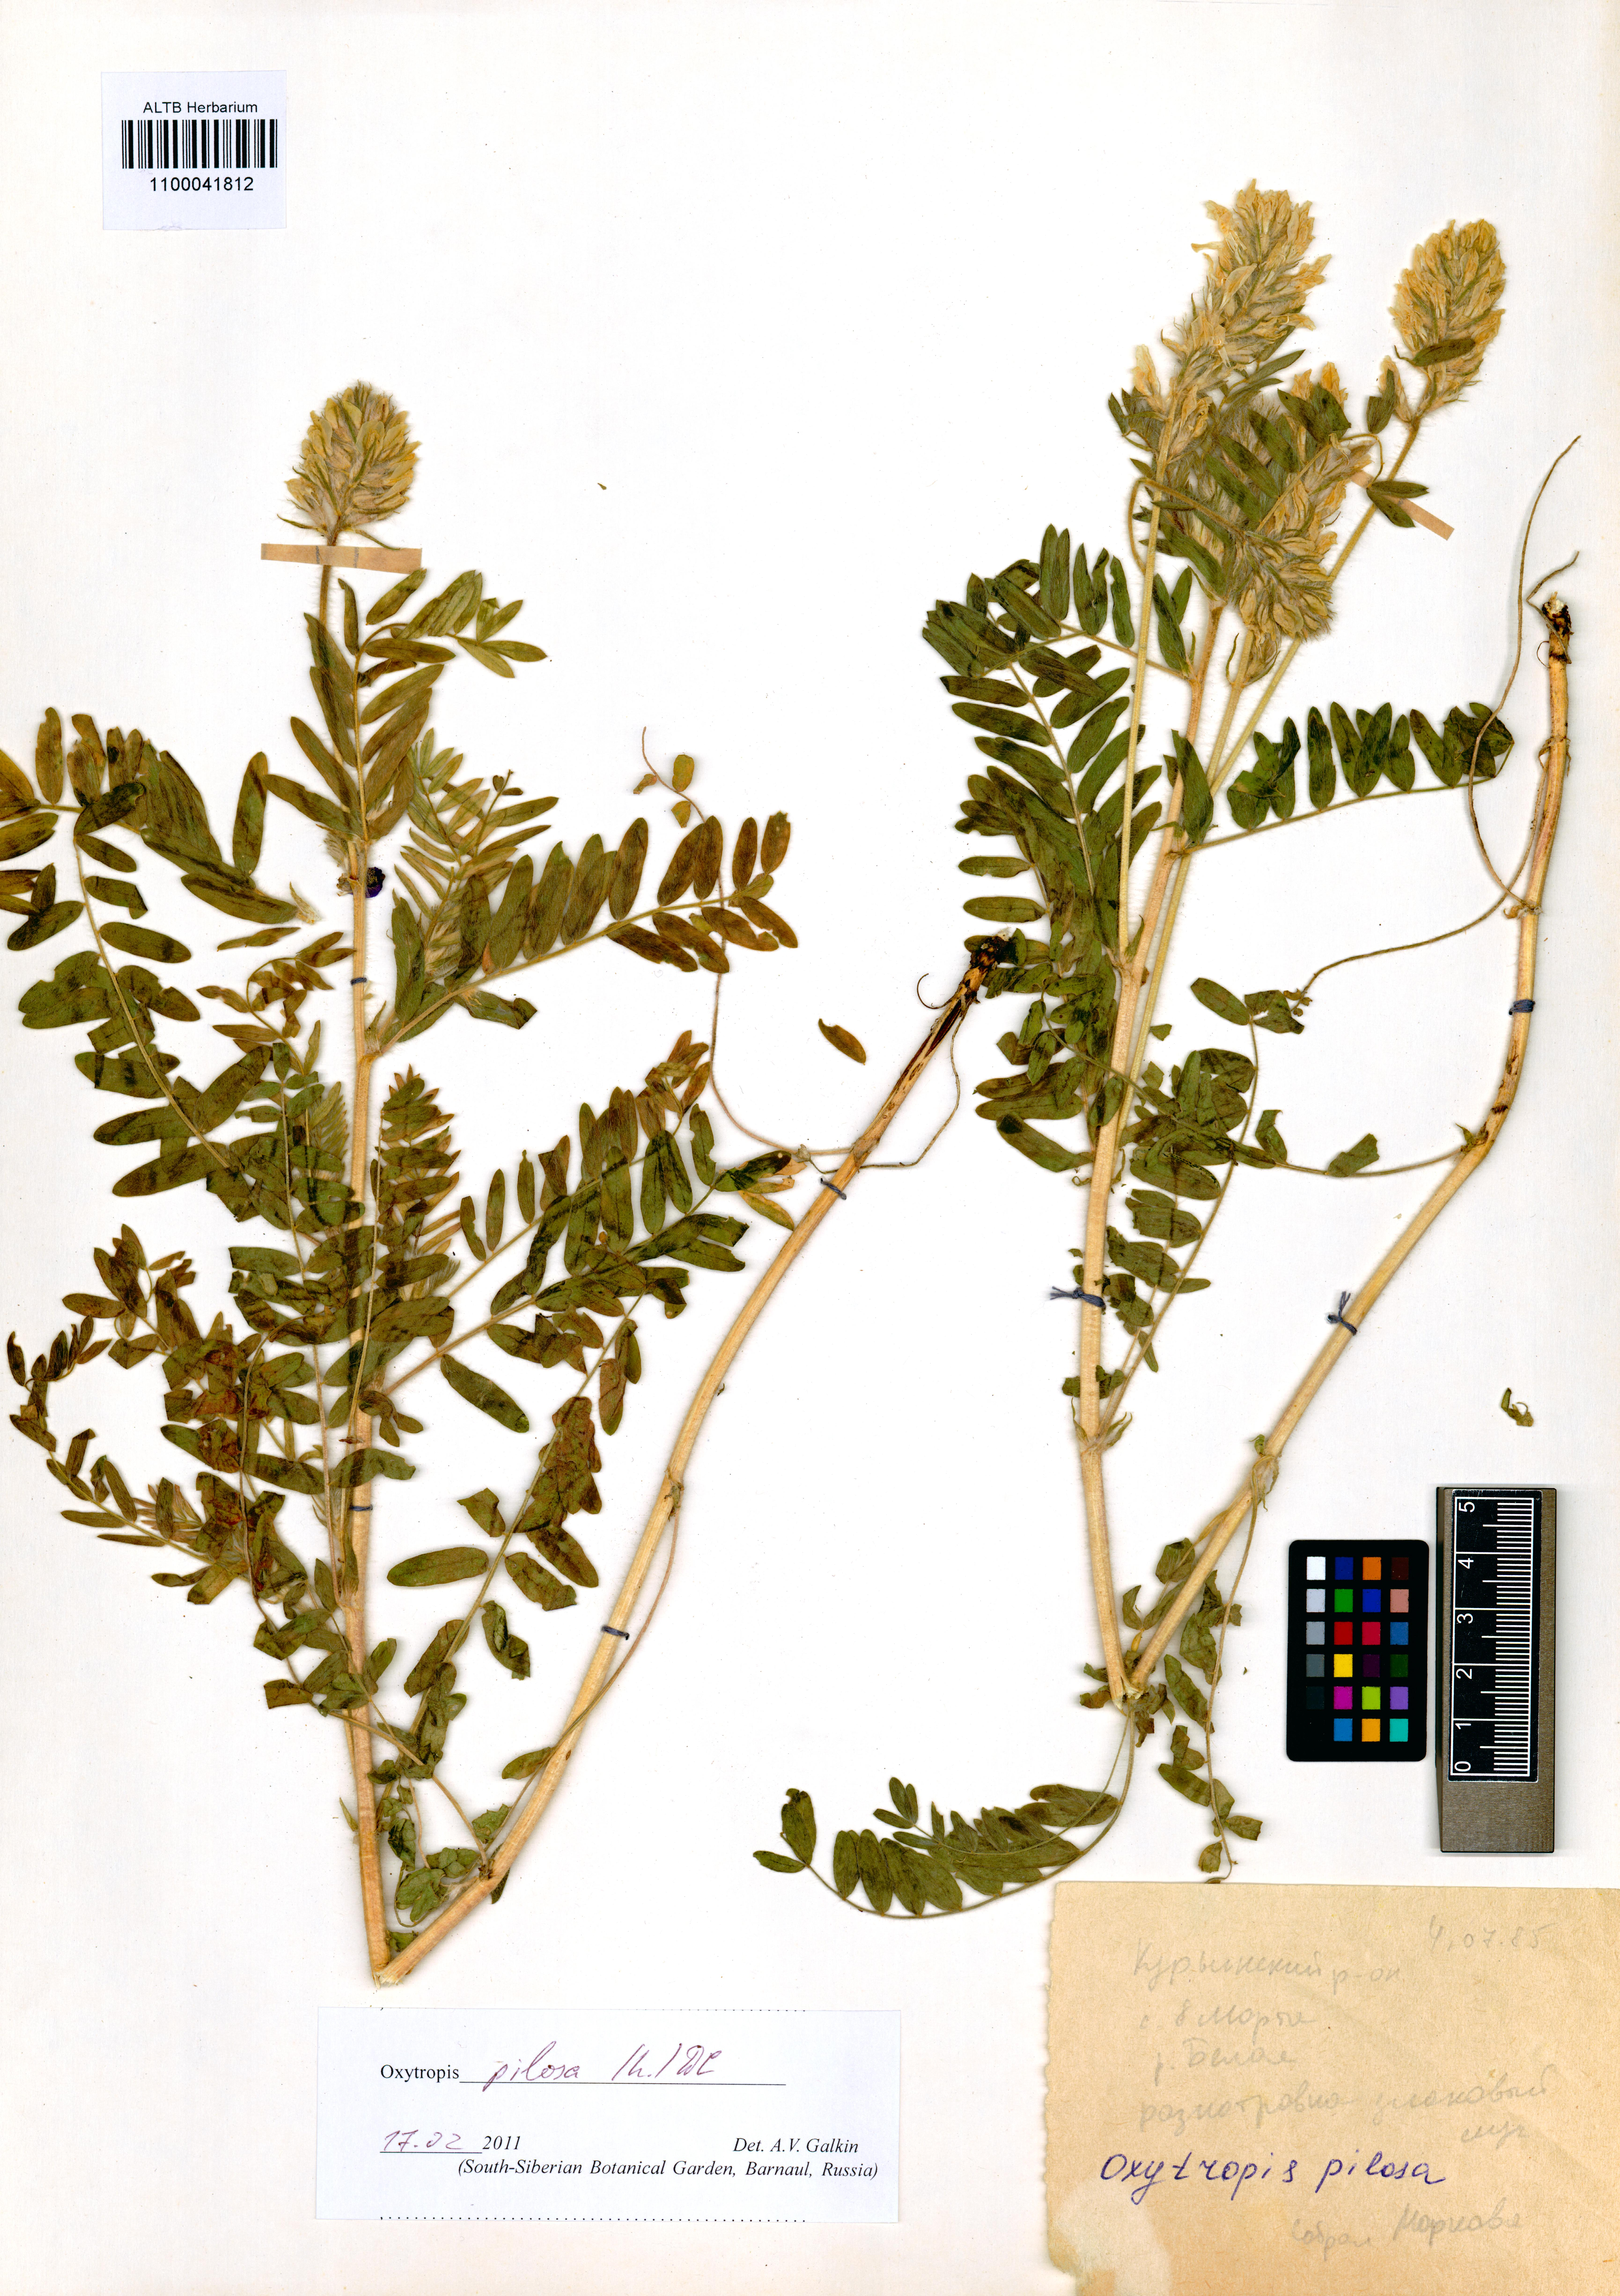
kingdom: Plantae
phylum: Tracheophyta
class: Magnoliopsida
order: Fabales
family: Fabaceae
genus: Oxytropis
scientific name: Oxytropis pilosa
